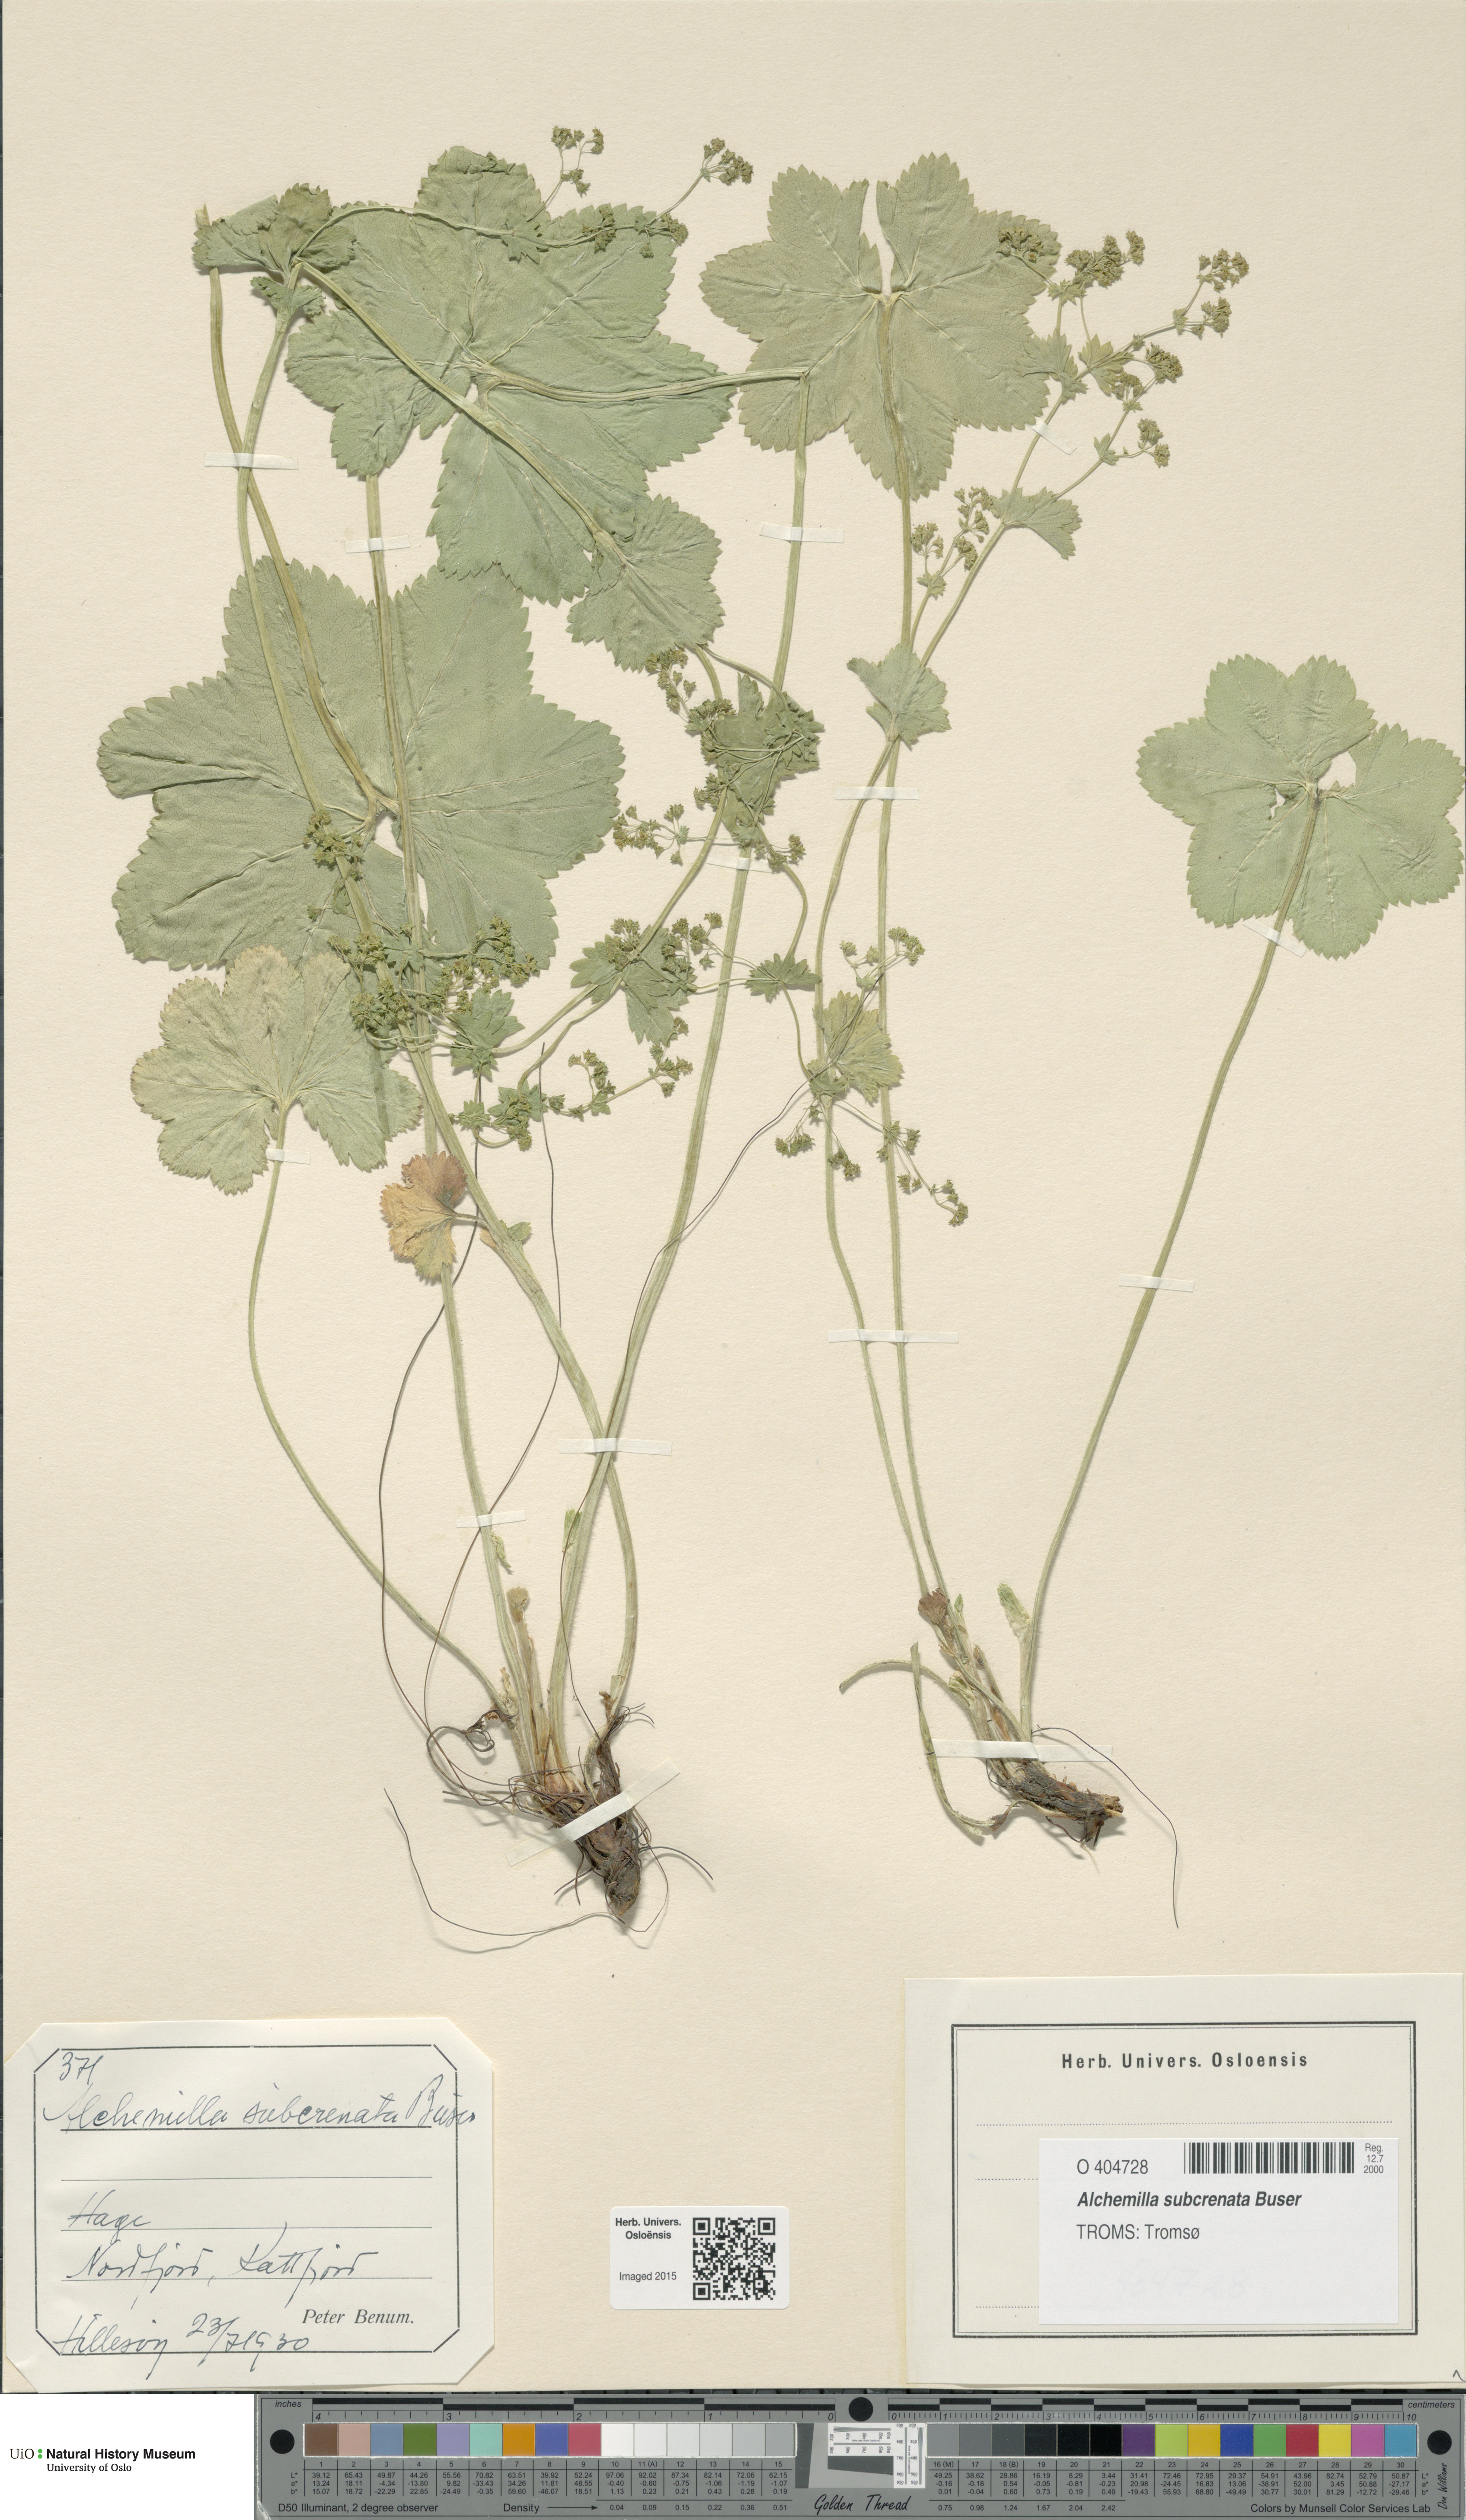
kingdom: Plantae
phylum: Tracheophyta
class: Magnoliopsida
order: Rosales
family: Rosaceae
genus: Alchemilla
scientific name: Alchemilla subcrenata
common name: Broadtooth lady's mantle
